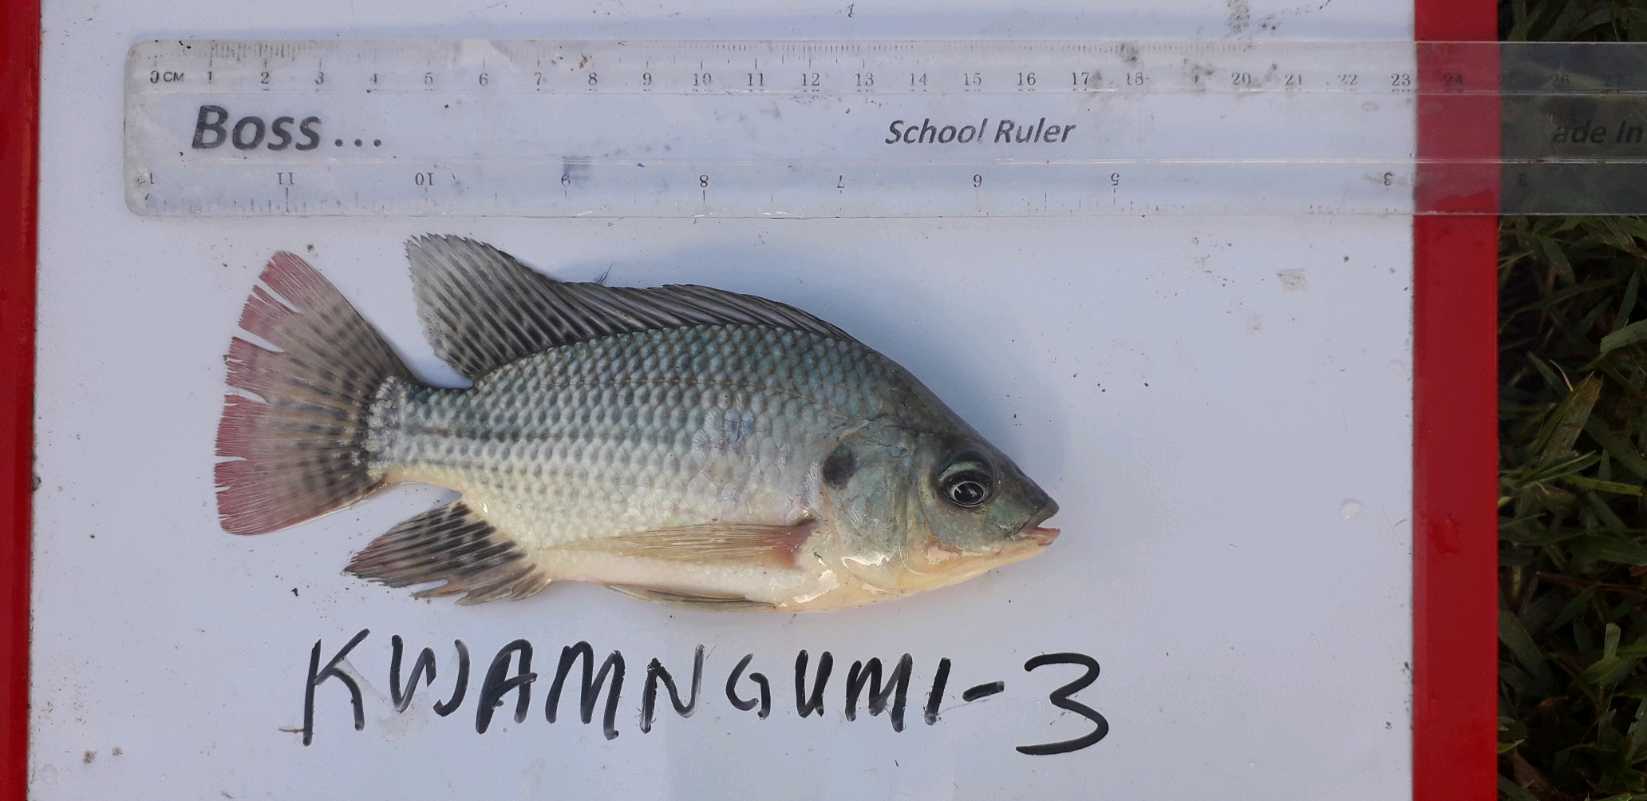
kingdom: Animalia
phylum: Chordata
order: Perciformes
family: Cichlidae
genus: Oreochromis
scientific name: Oreochromis
